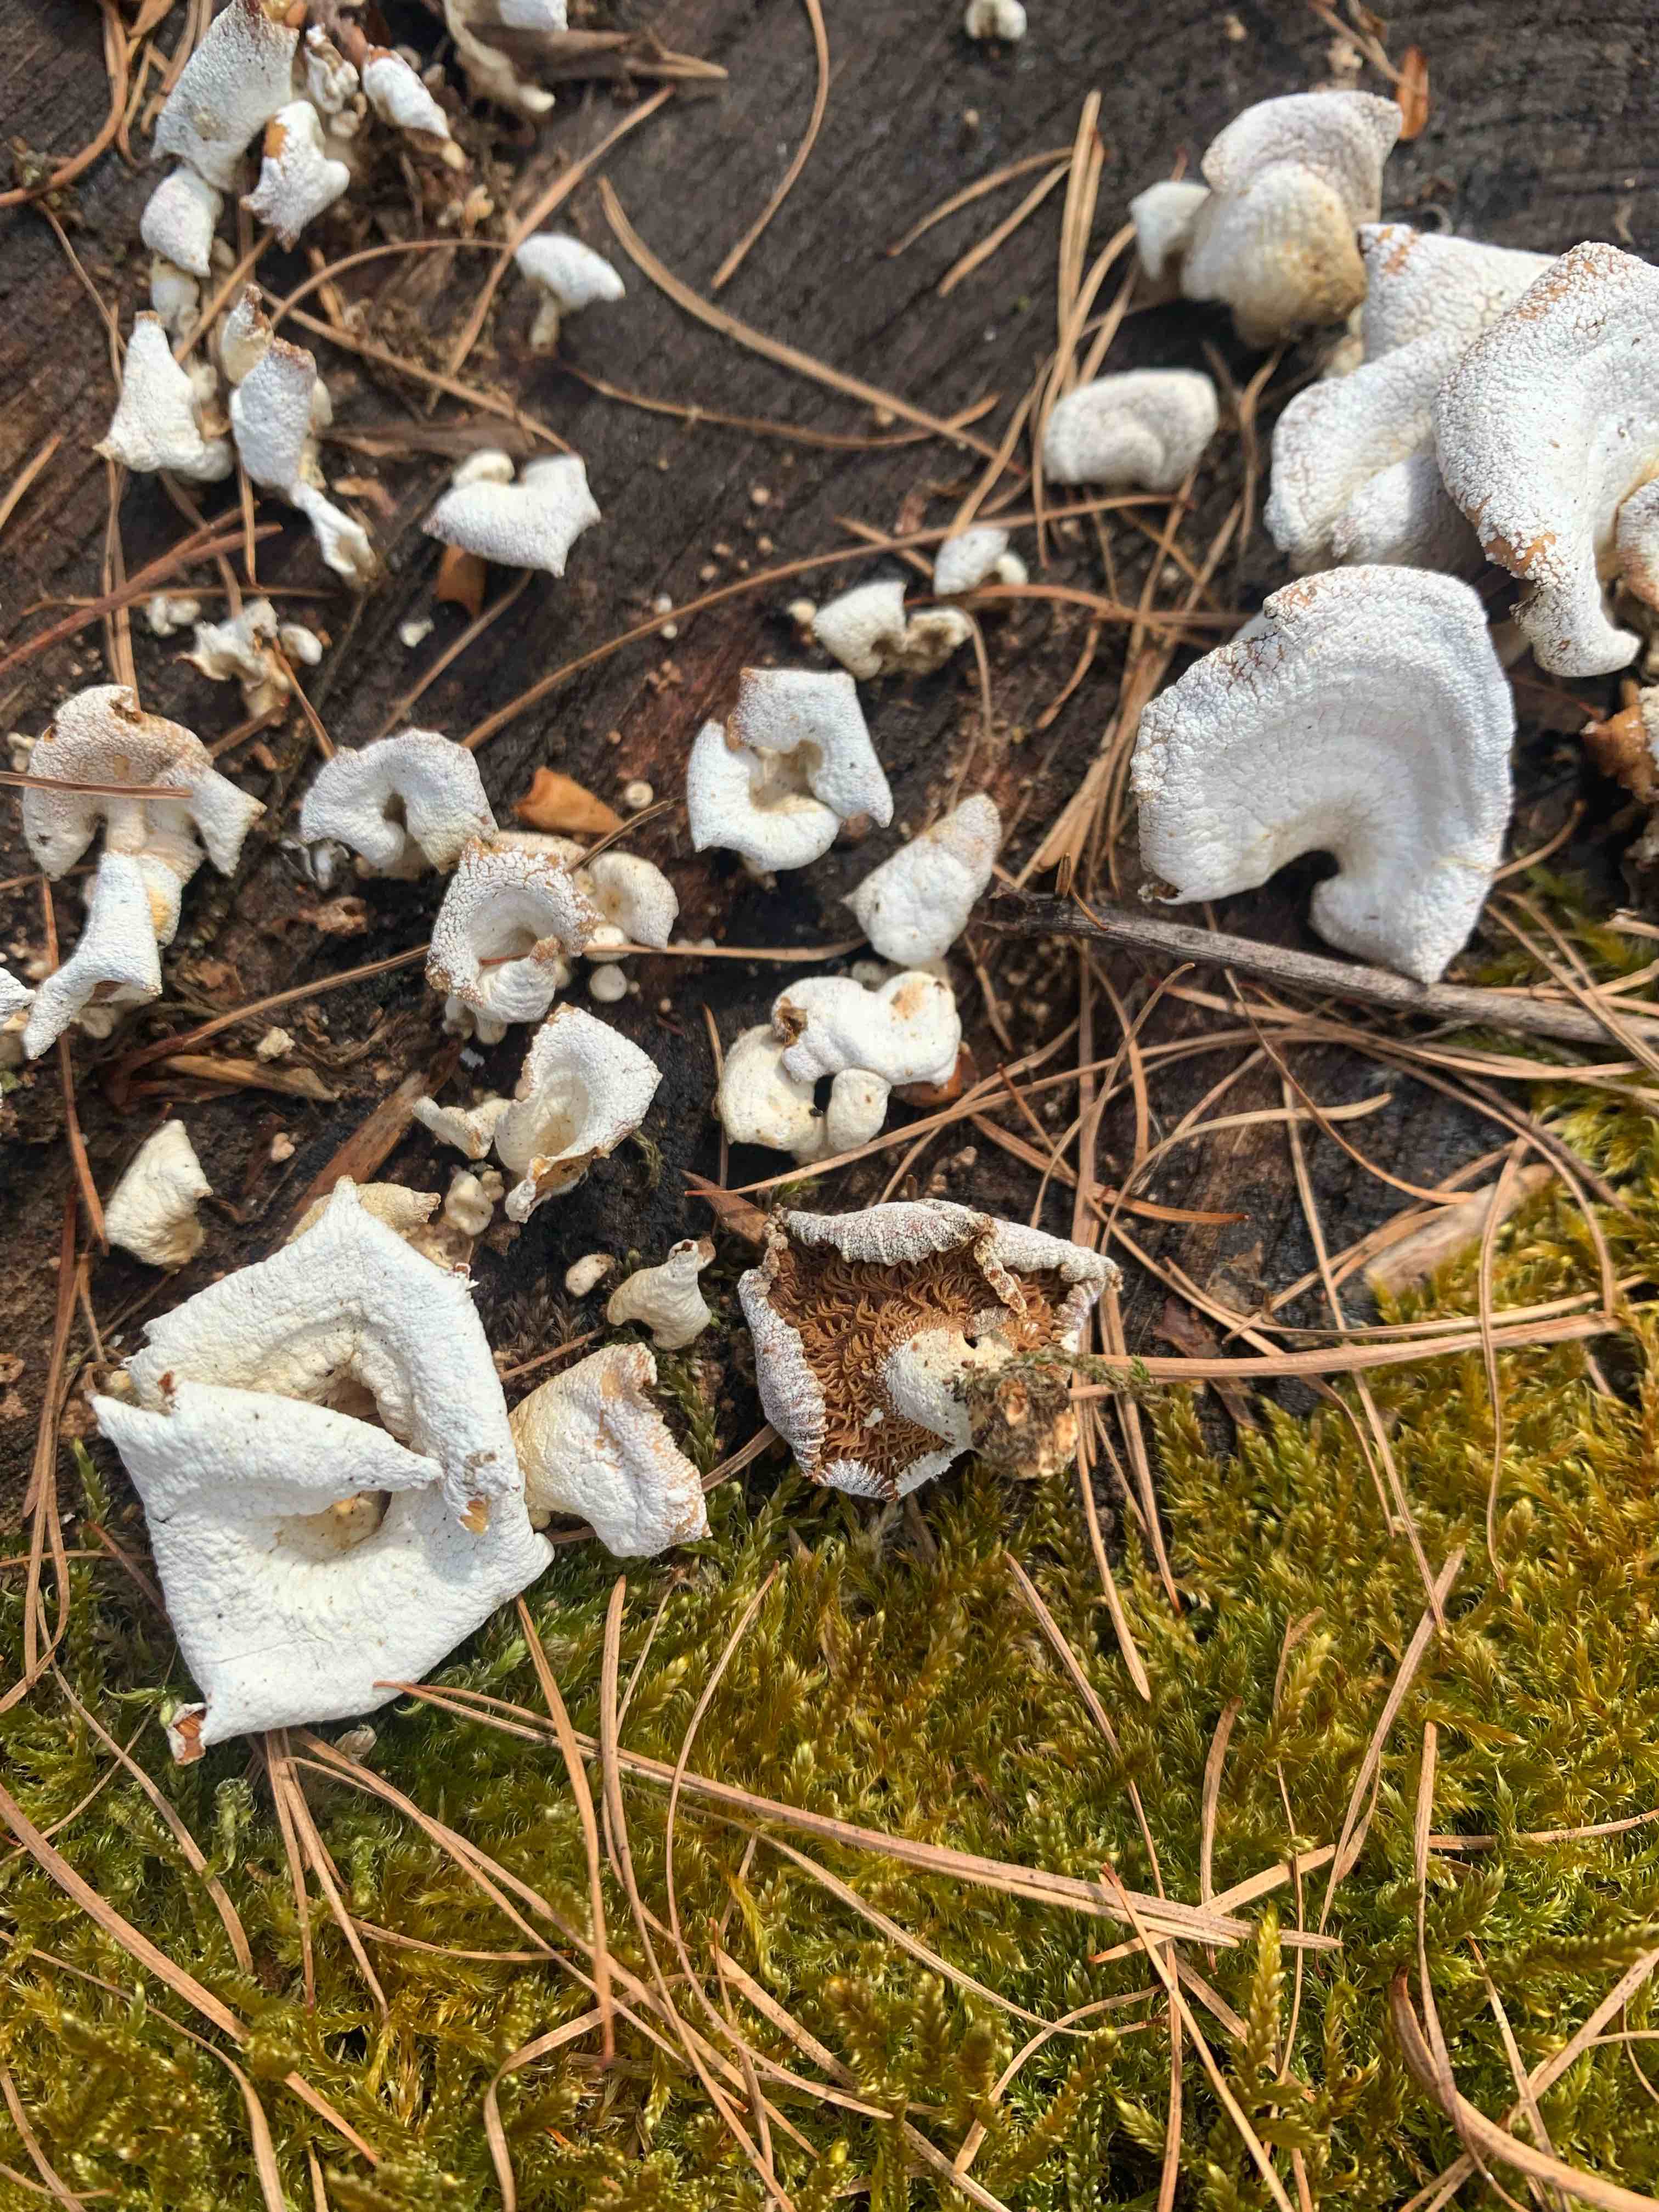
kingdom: Fungi
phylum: Basidiomycota
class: Agaricomycetes
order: Agaricales
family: Mycenaceae
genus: Panellus
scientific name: Panellus stipticus
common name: kliddet epaulethat
